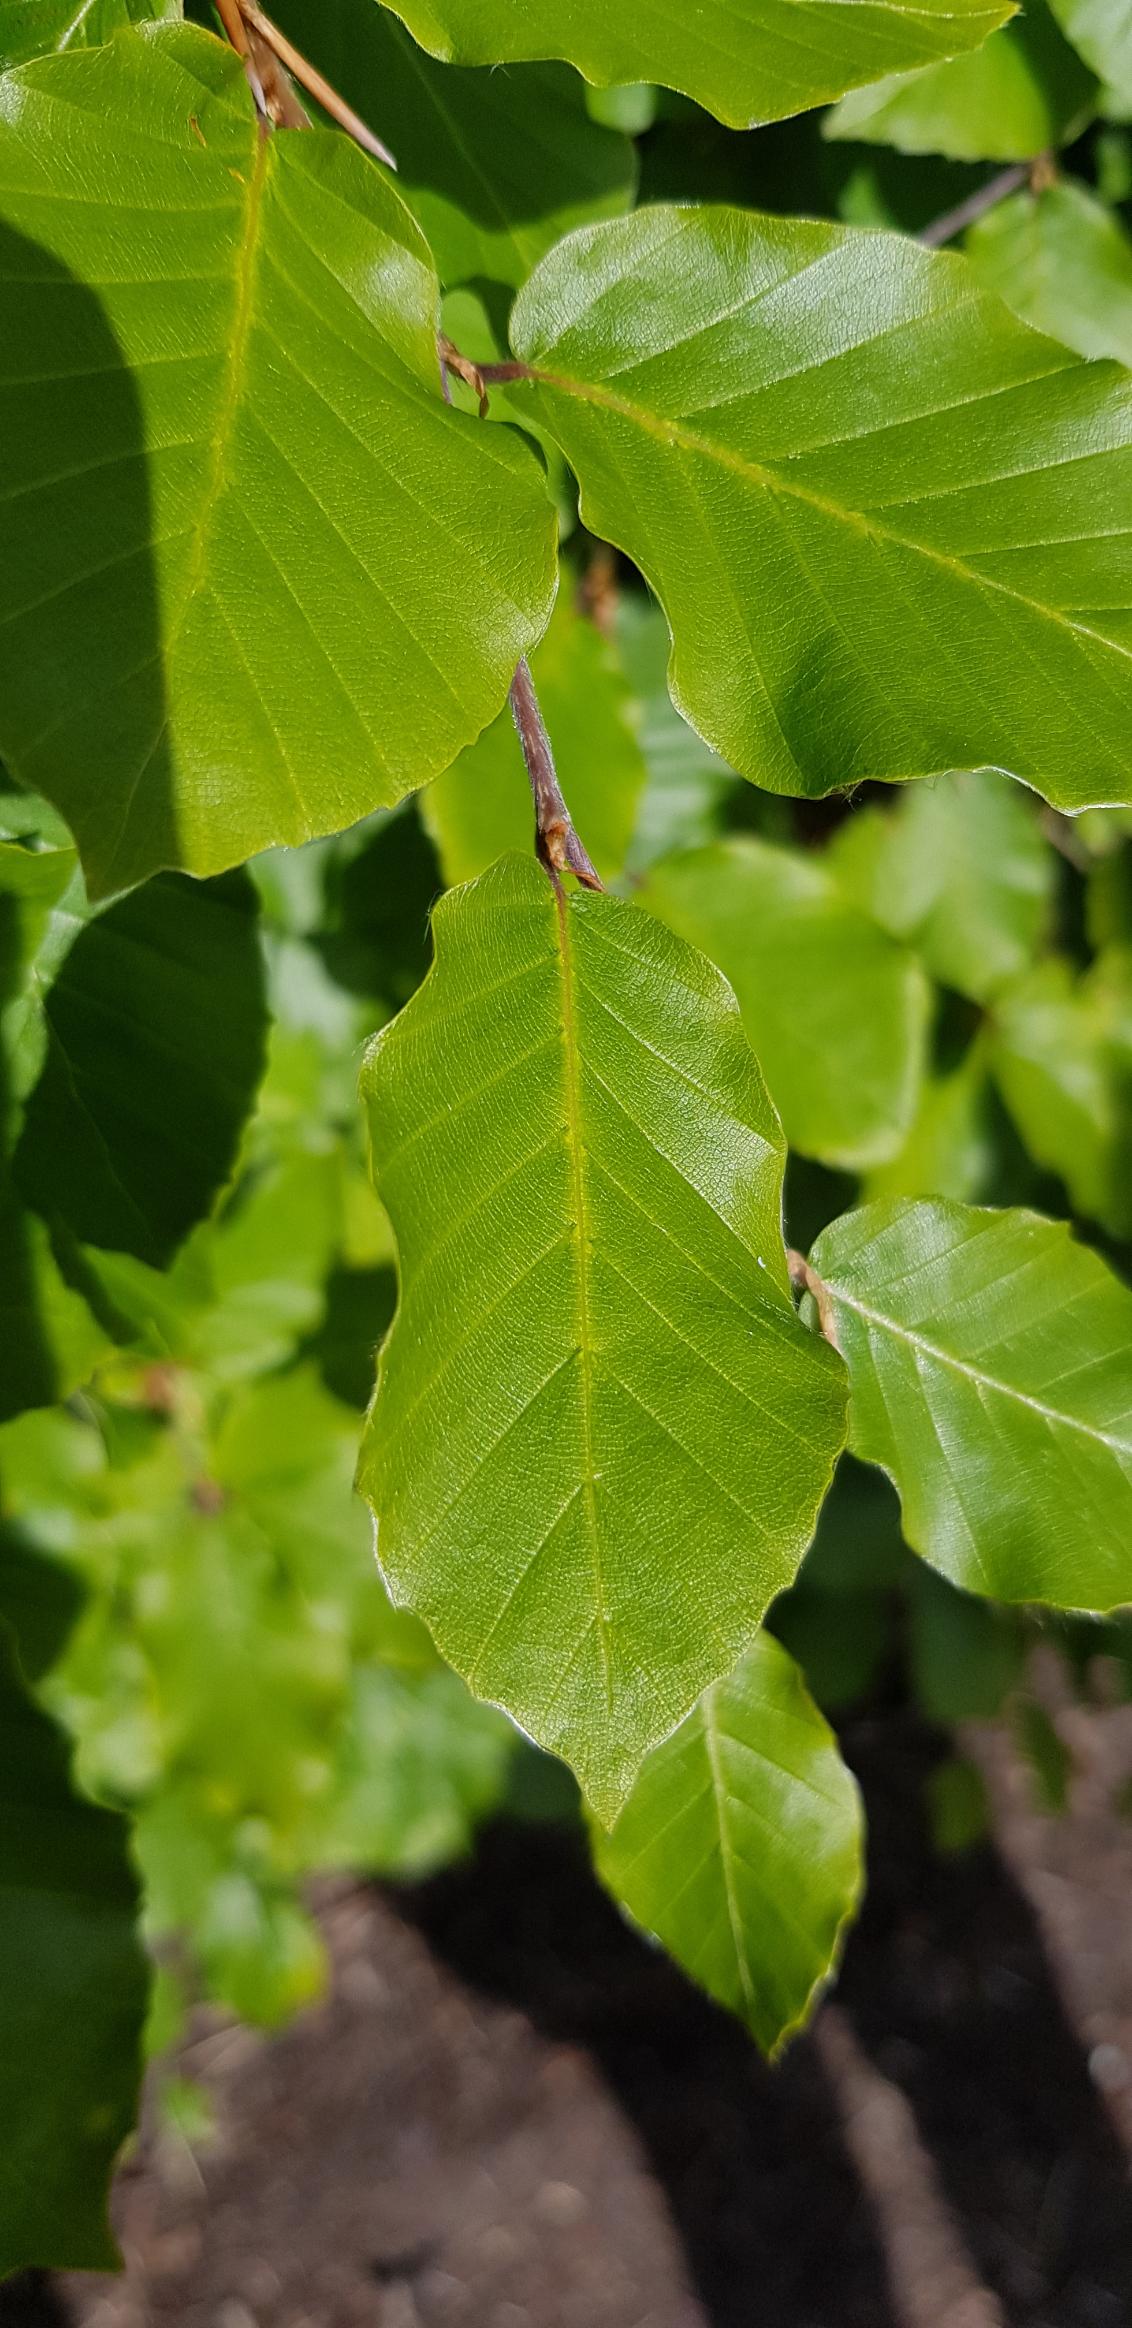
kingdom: Plantae
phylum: Tracheophyta
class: Magnoliopsida
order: Fagales
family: Fagaceae
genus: Fagus
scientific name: Fagus sylvatica
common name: Bøg
